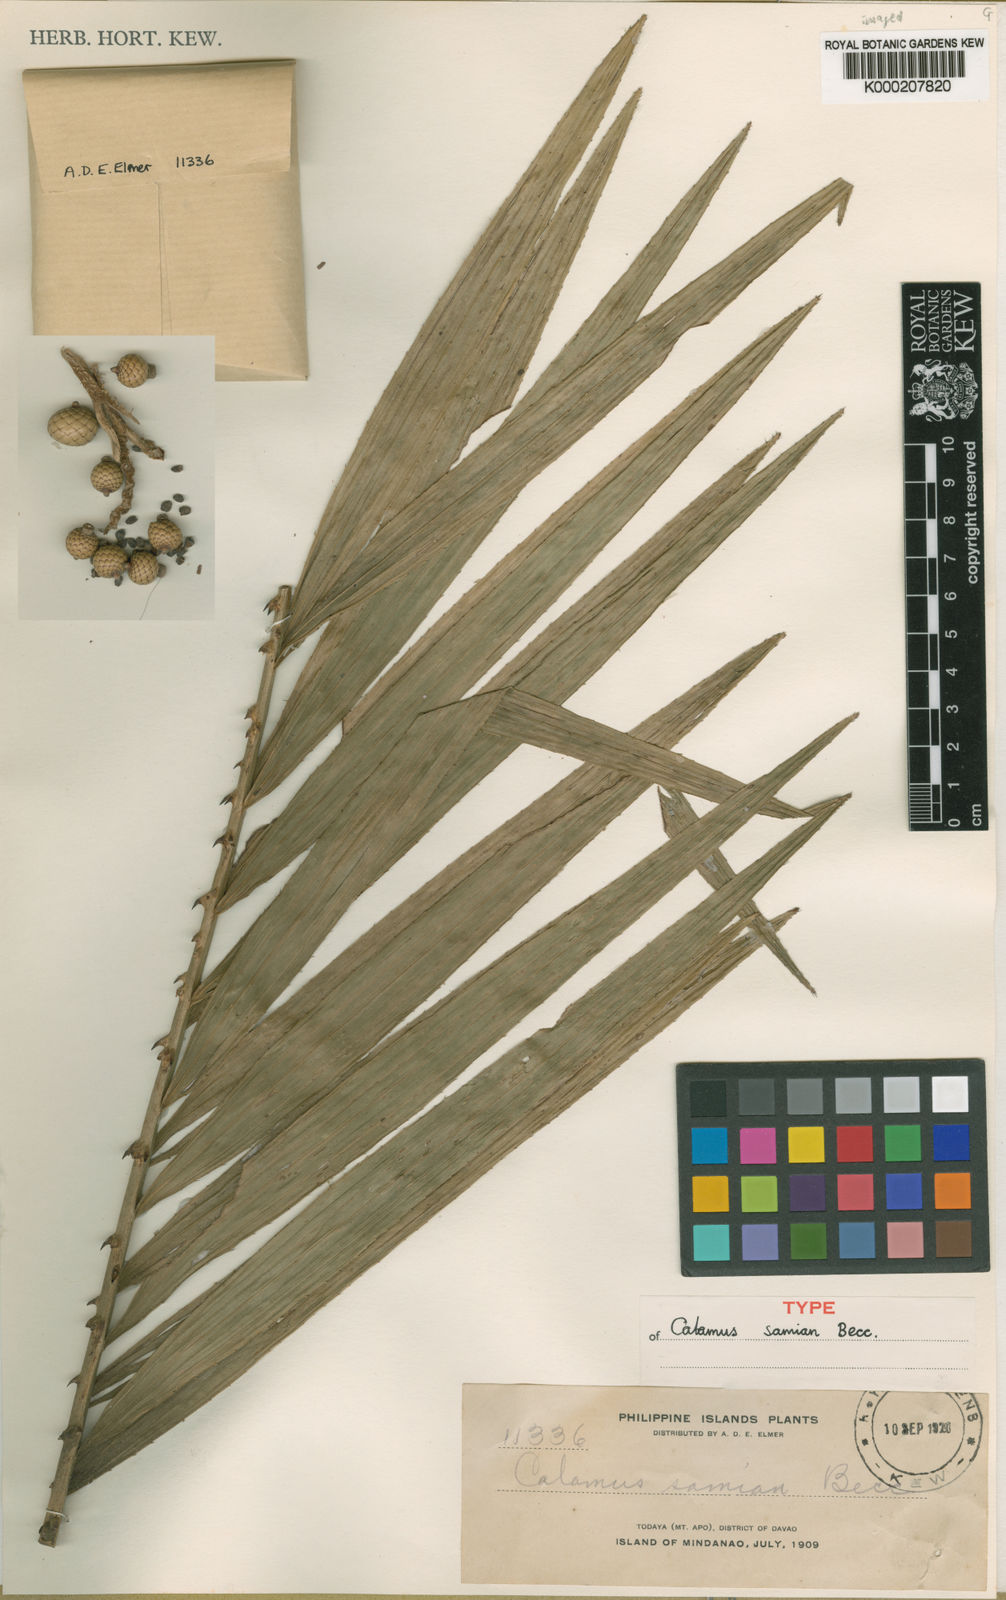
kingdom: Plantae
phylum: Tracheophyta
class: Liliopsida
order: Arecales
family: Arecaceae
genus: Calamus
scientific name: Calamus samian
